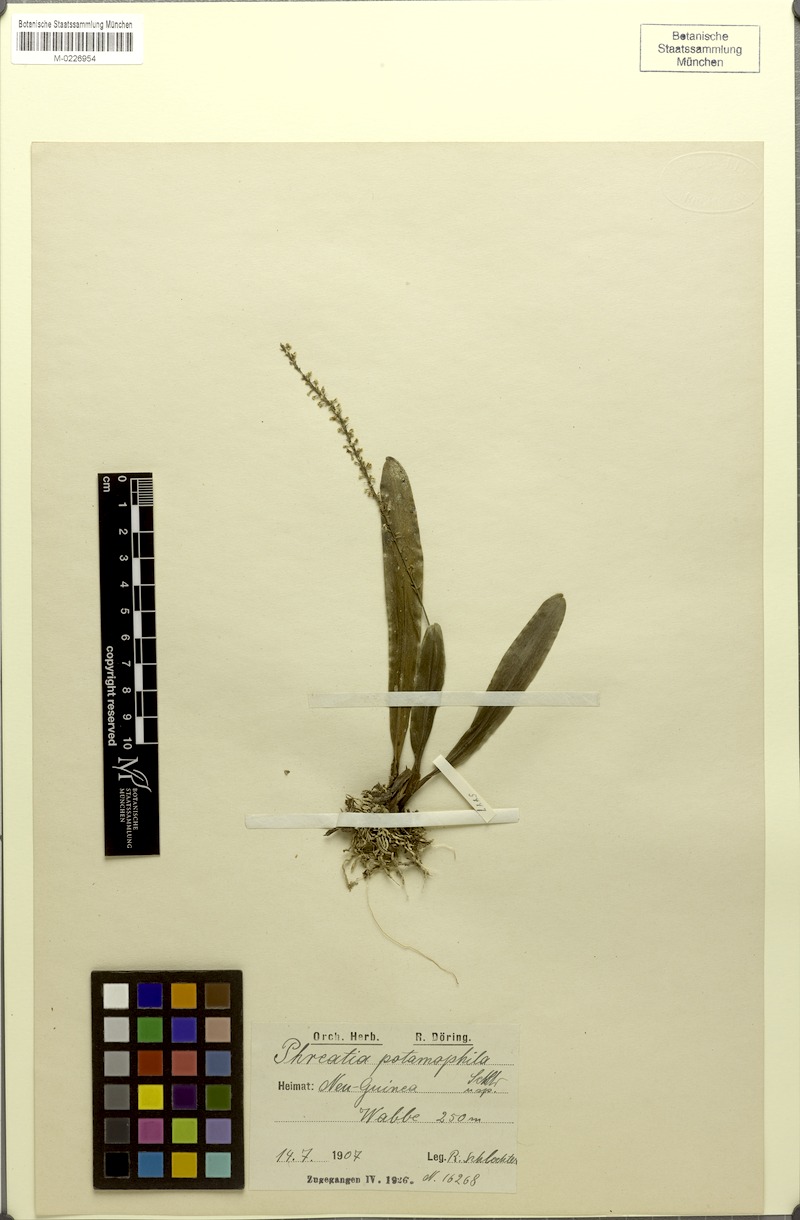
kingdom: Plantae
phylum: Tracheophyta
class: Liliopsida
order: Asparagales
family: Orchidaceae
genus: Phreatia
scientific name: Phreatia constricta
